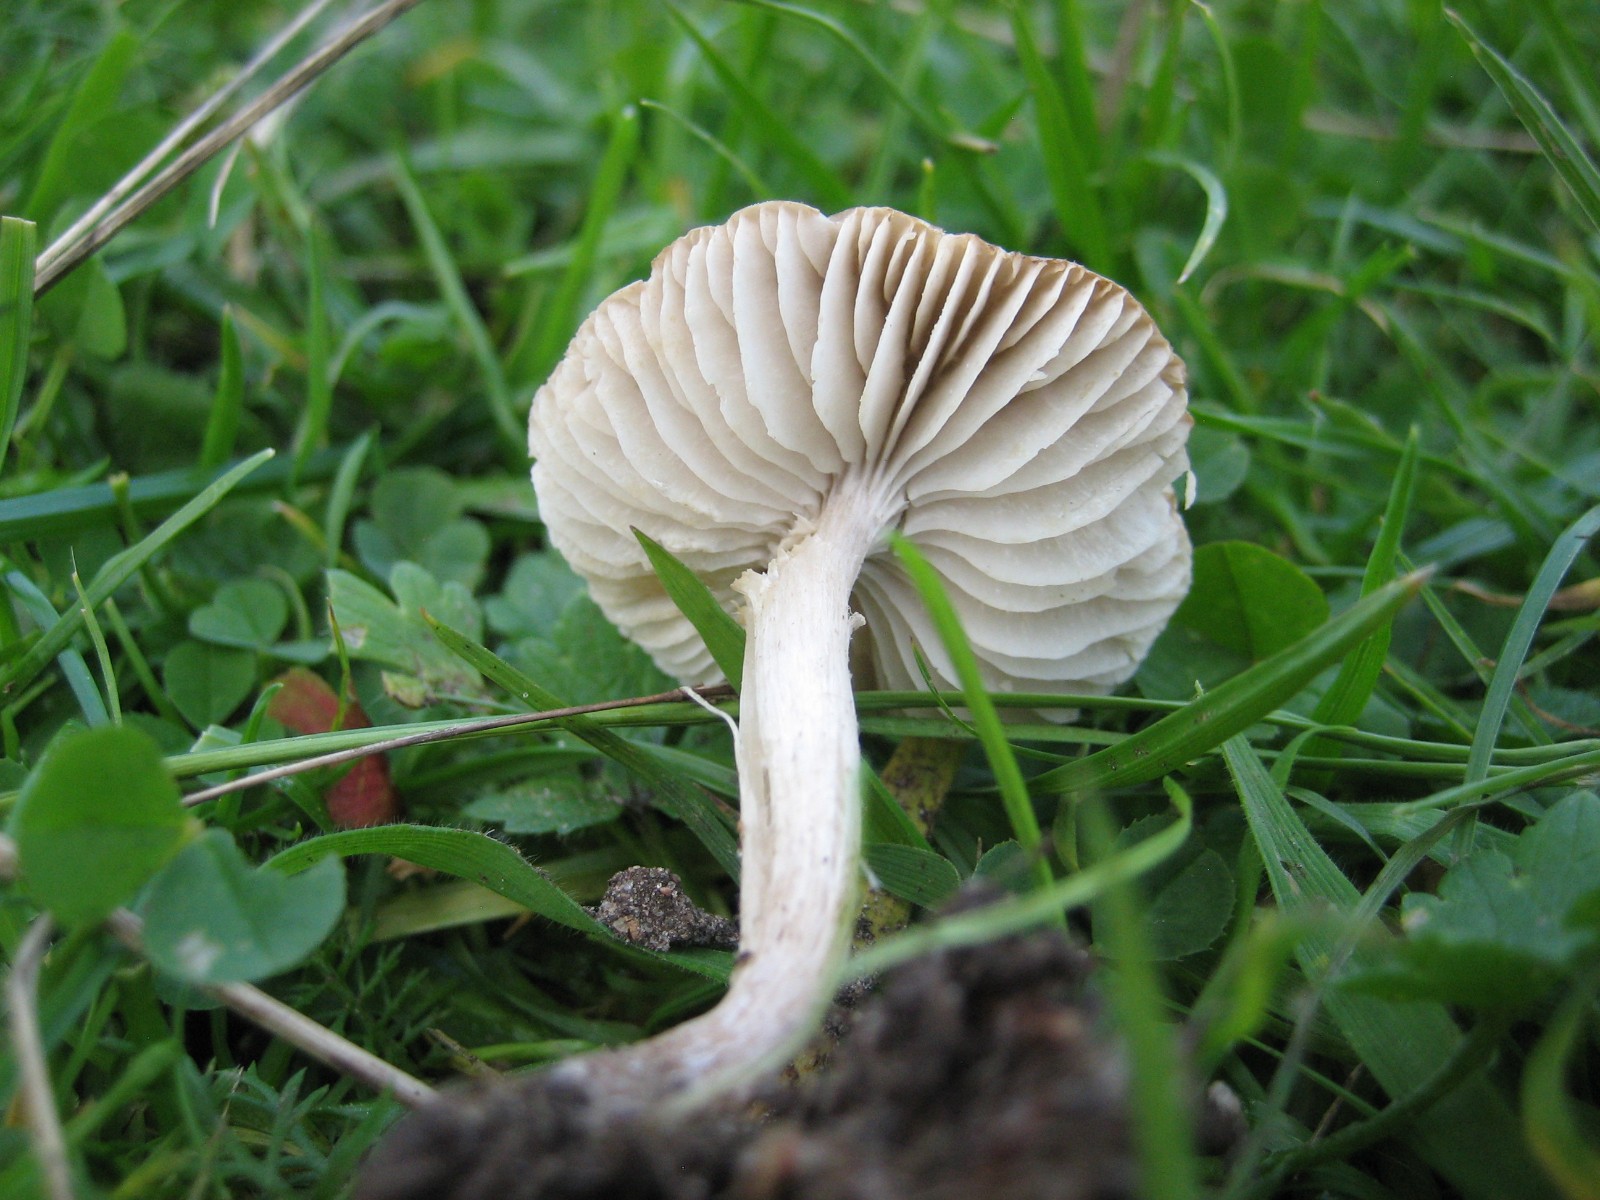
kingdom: Fungi
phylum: Basidiomycota
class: Agaricomycetes
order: Agaricales
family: Tricholomataceae
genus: Dermoloma
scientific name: Dermoloma cuneifolium
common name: eng-nonnehat
